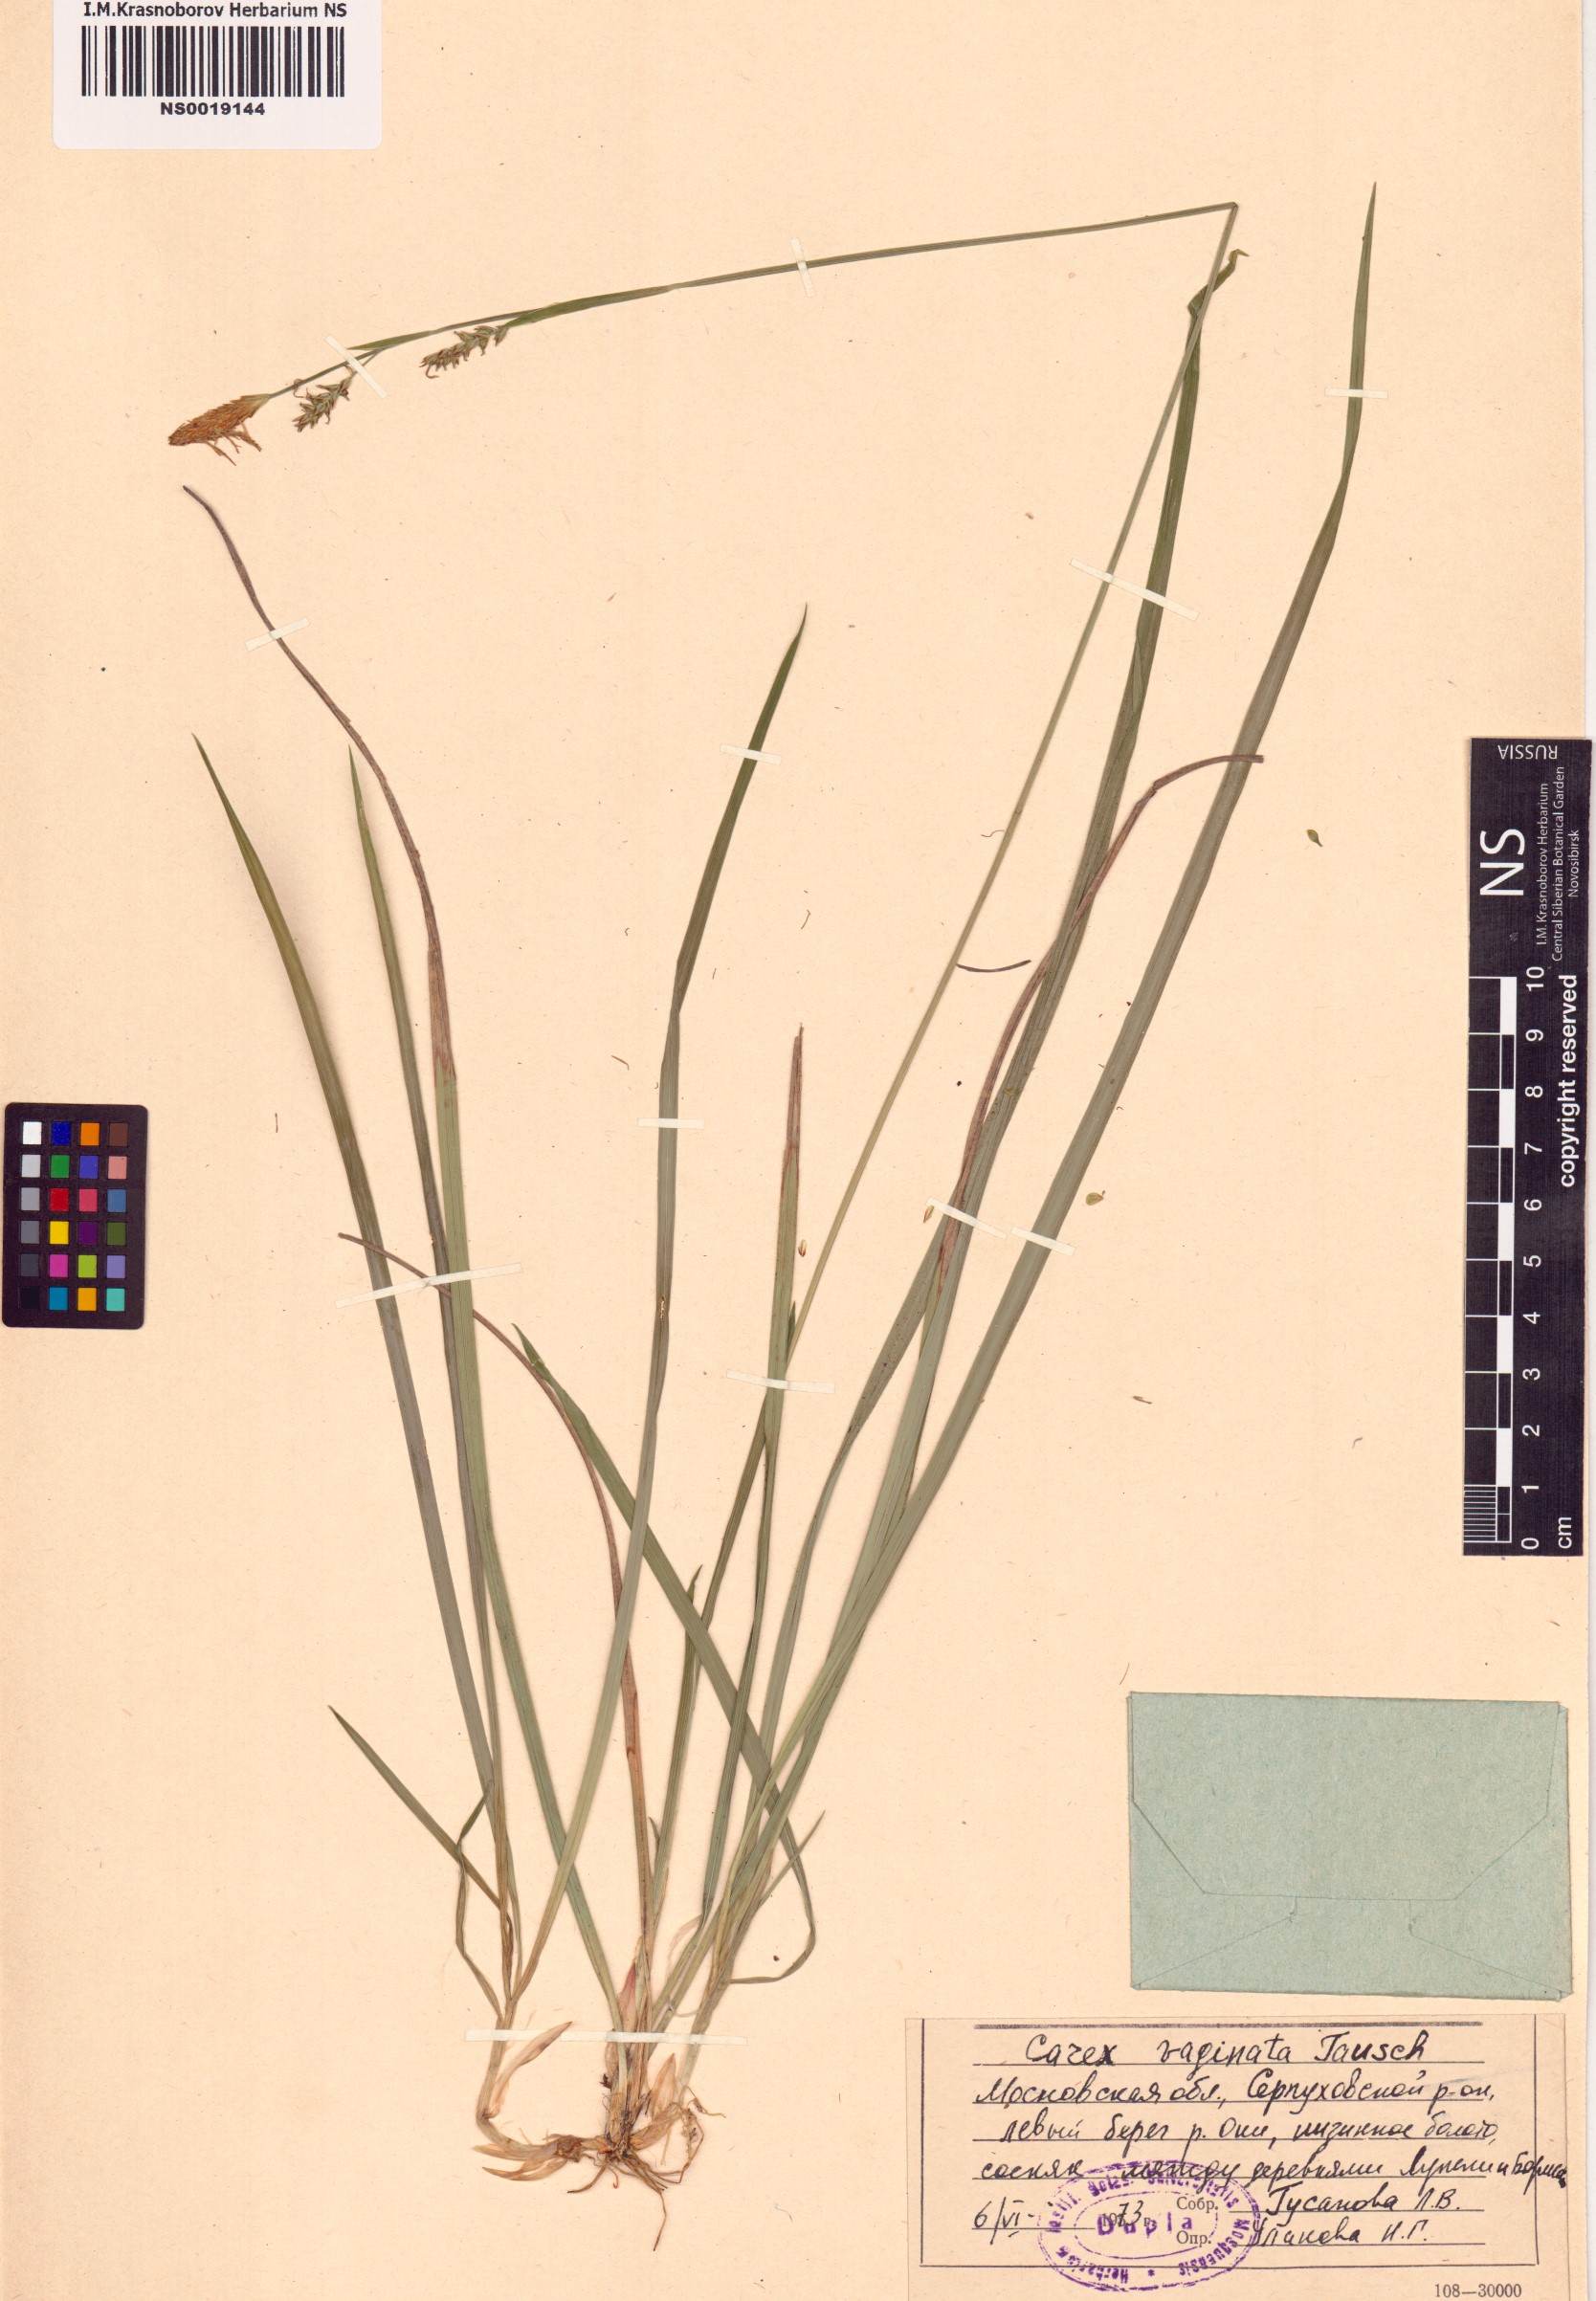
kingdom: Plantae
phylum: Tracheophyta
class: Liliopsida
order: Poales
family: Cyperaceae
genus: Carex
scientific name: Carex vaginata
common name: Sheathed sedge
